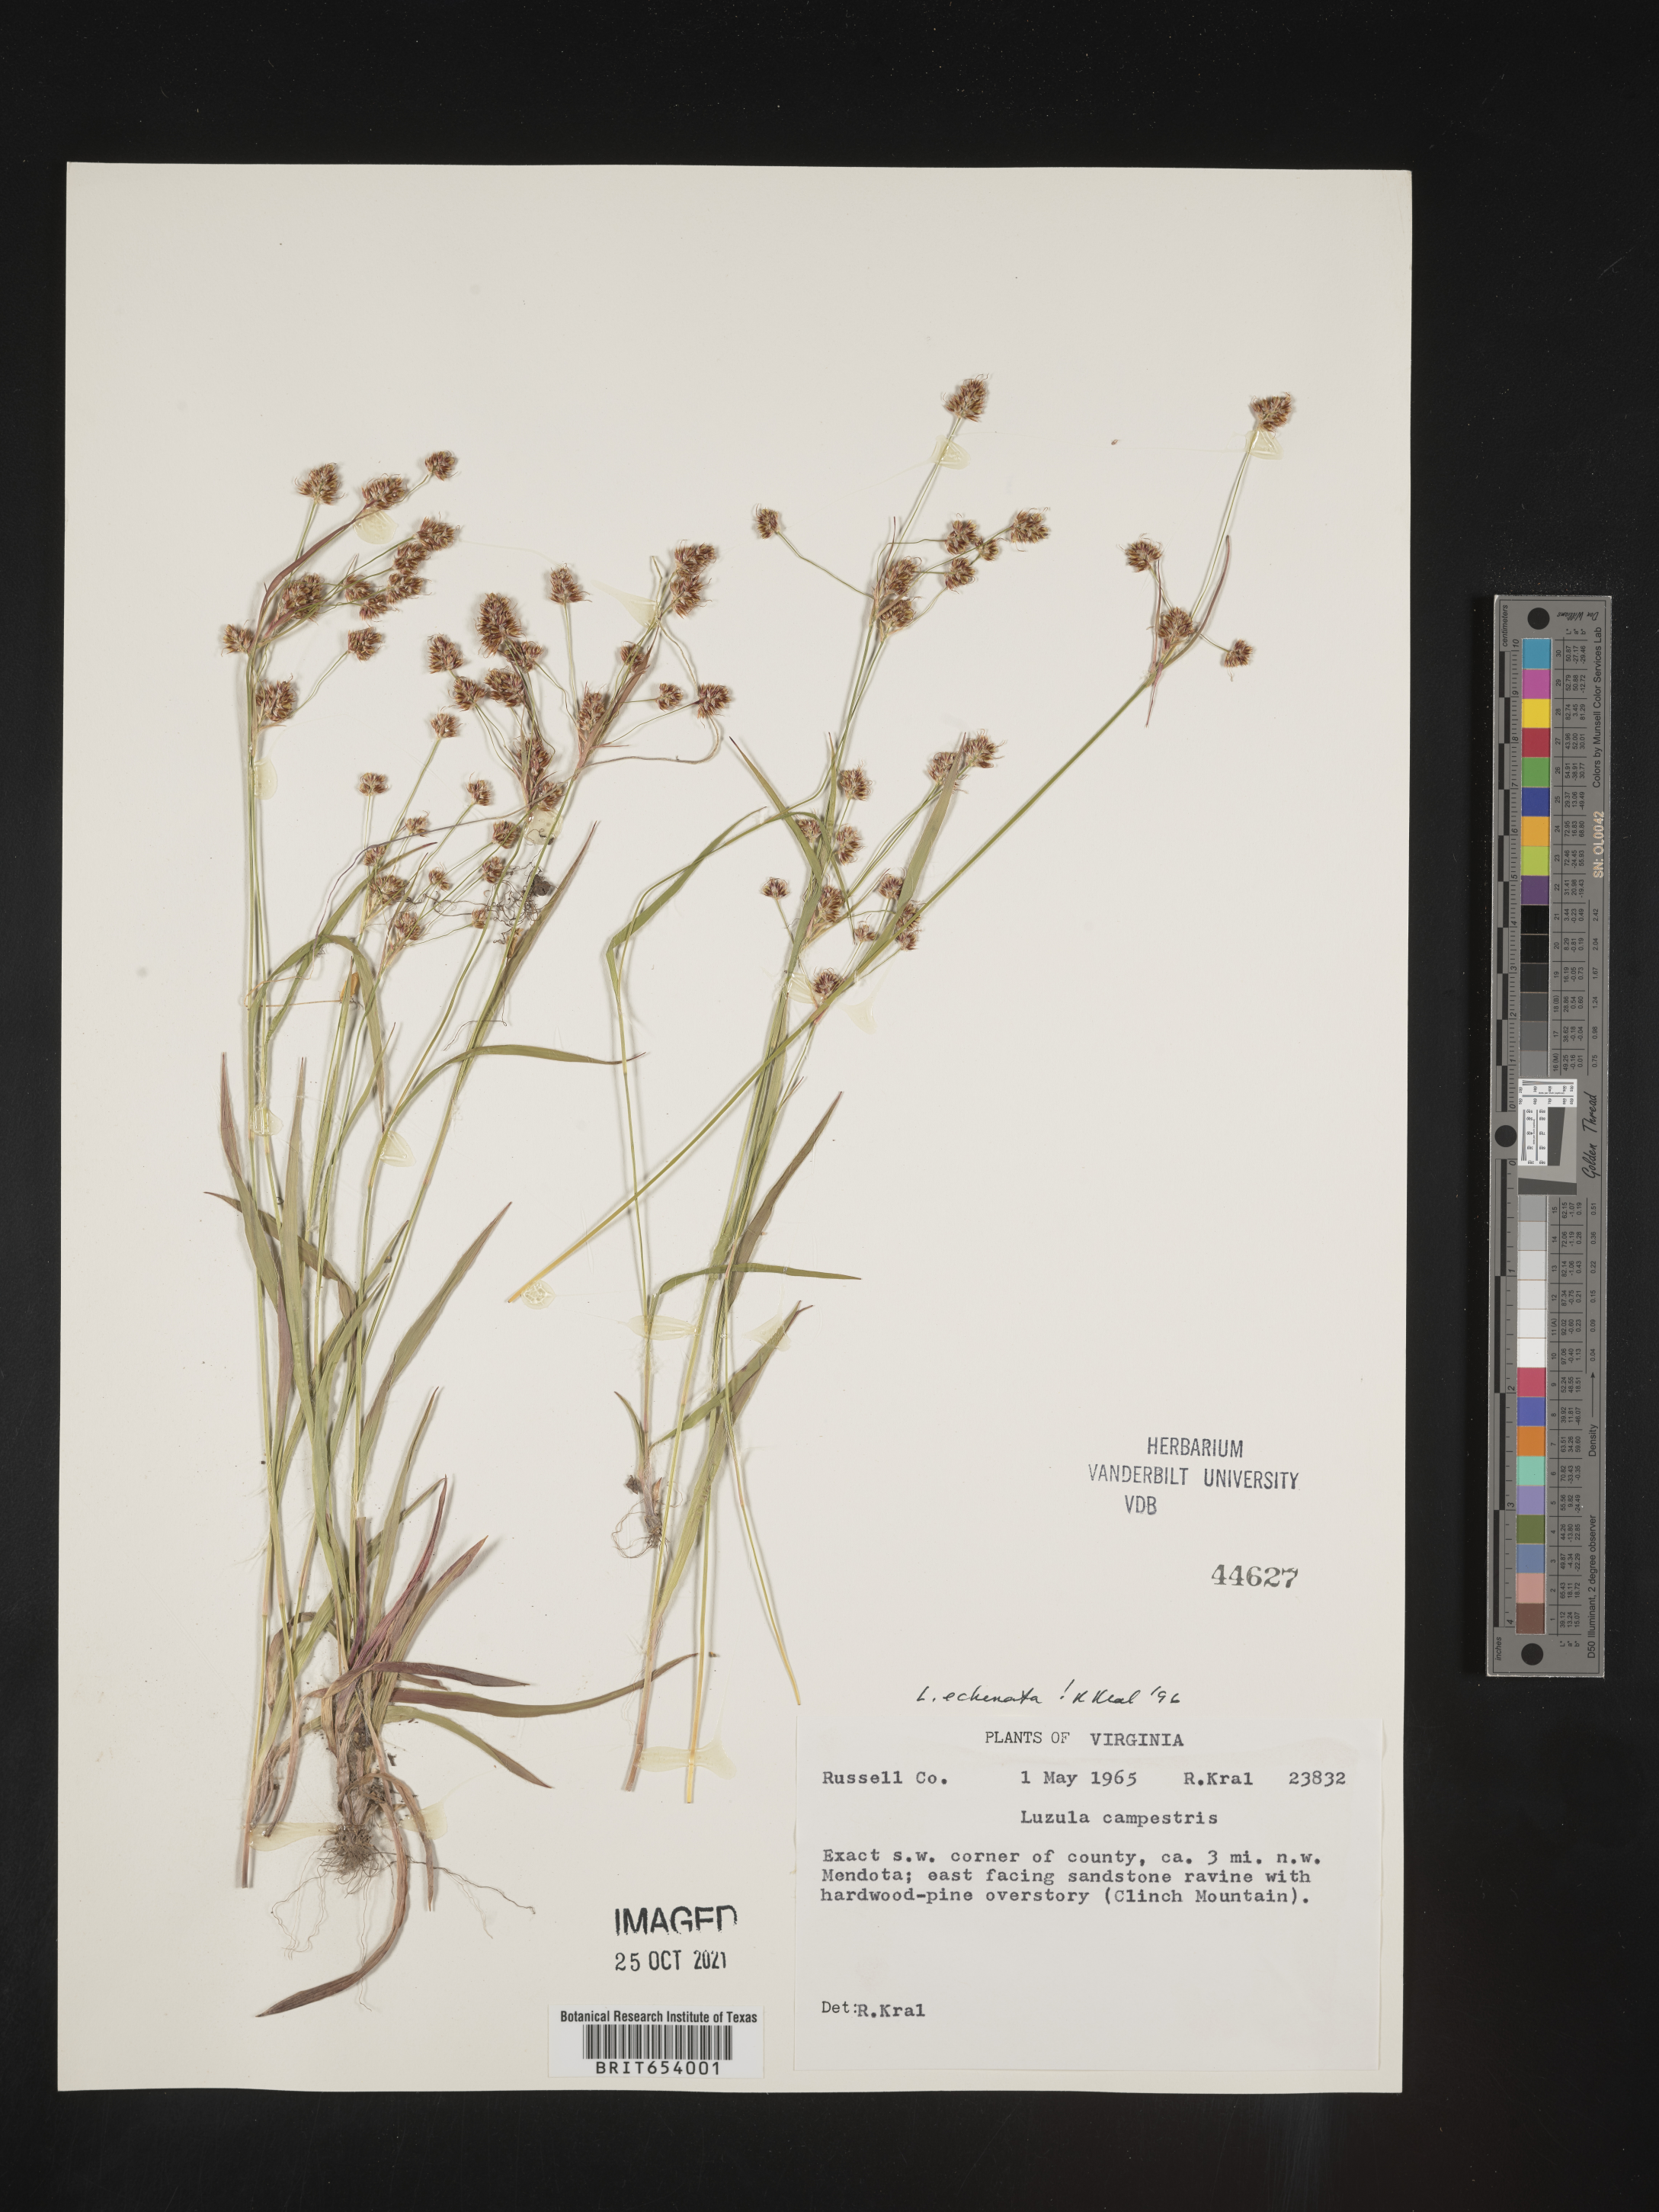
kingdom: Plantae
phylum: Tracheophyta
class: Liliopsida
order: Poales
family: Juncaceae
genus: Luzula
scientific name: Luzula echinata
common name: Hedgehog woodrush
